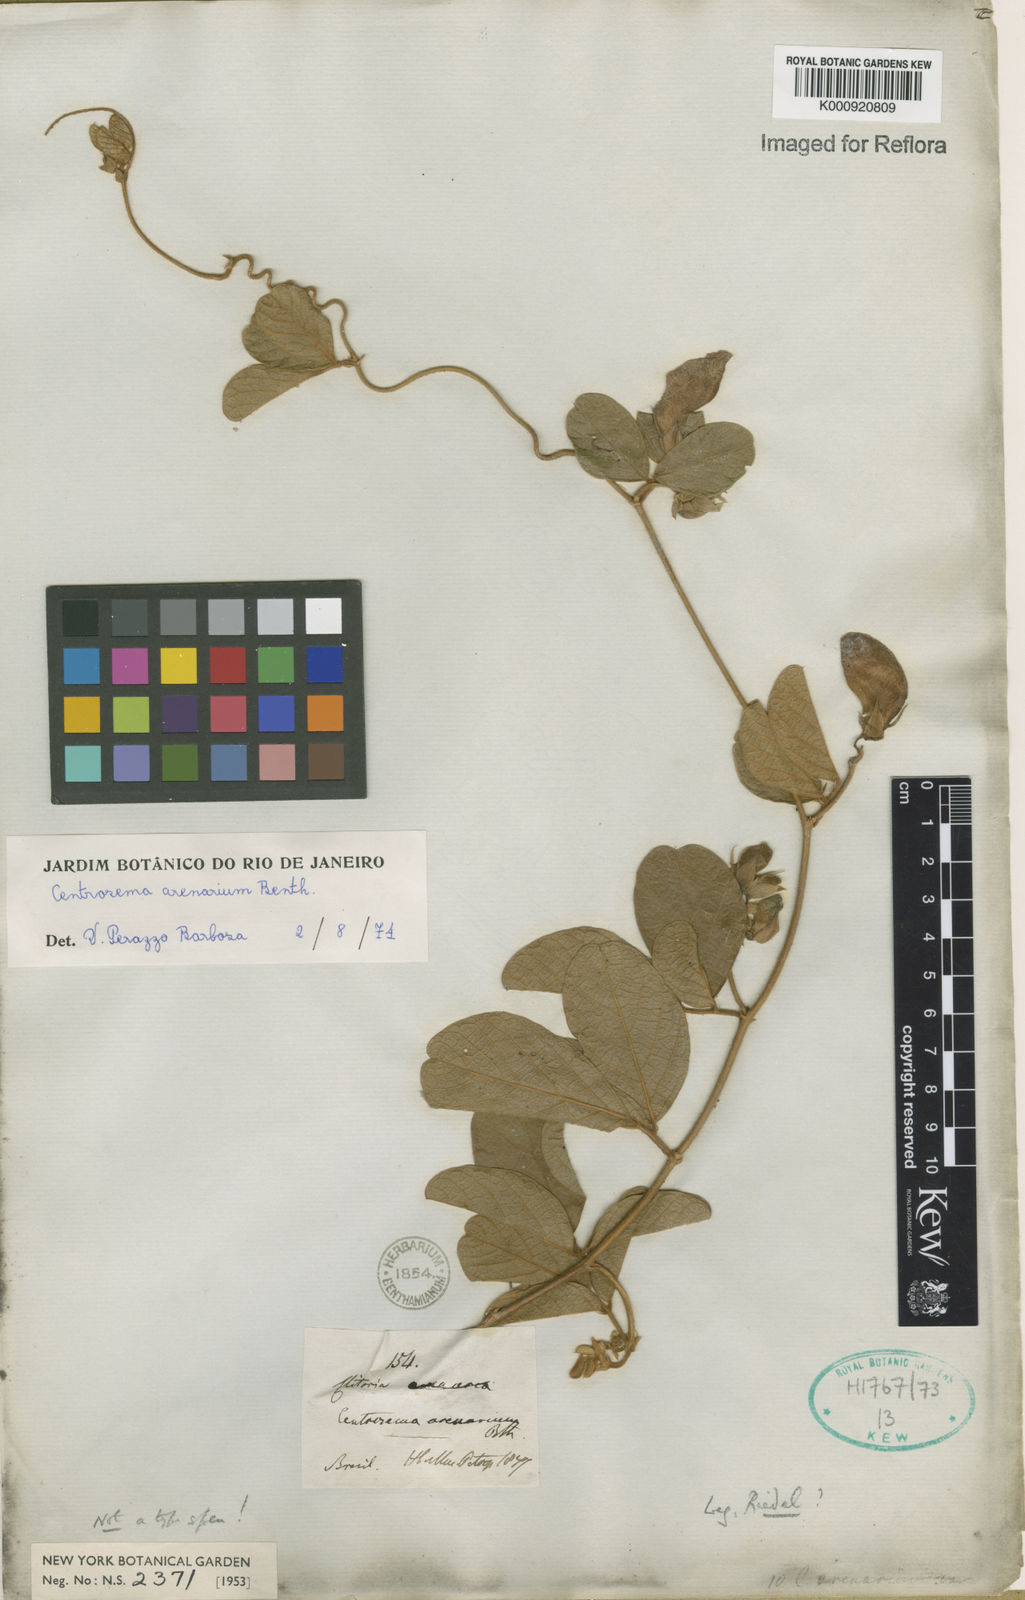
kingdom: Plantae
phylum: Tracheophyta
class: Magnoliopsida
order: Fabales
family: Fabaceae
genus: Centrosema
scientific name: Centrosema arenarium
